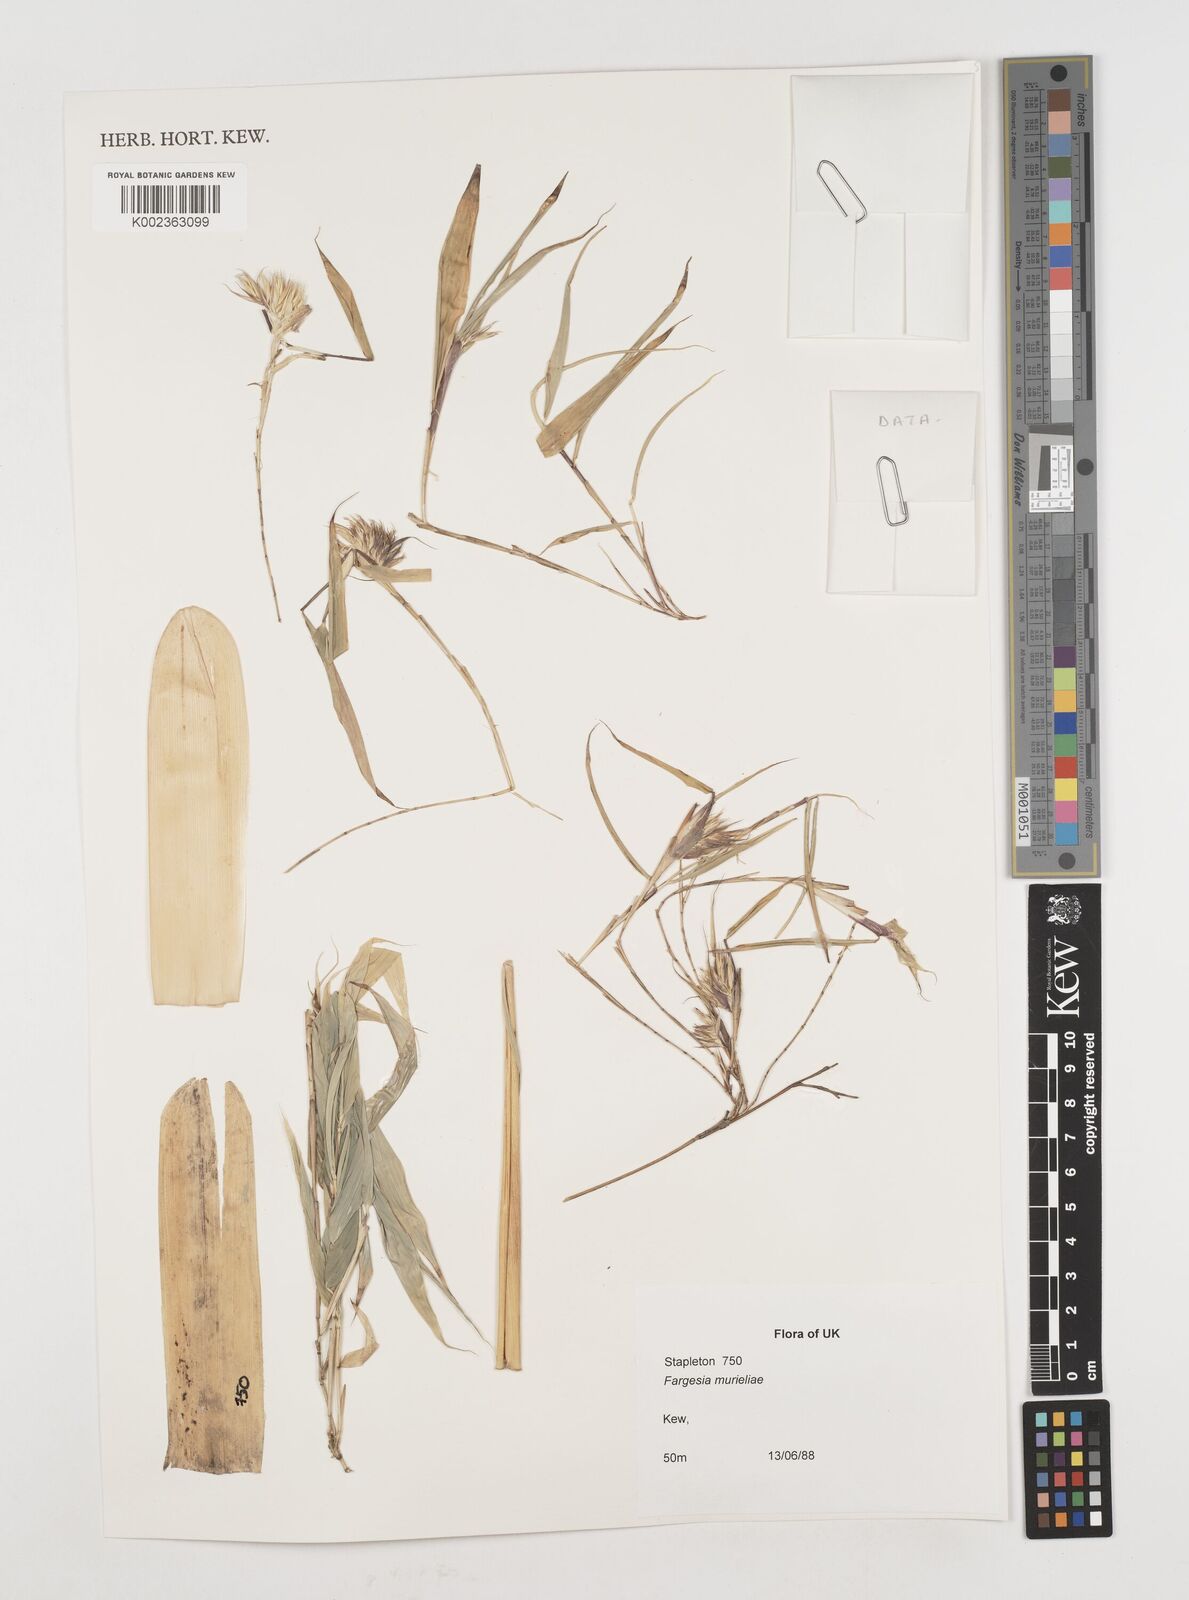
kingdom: Plantae
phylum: Tracheophyta
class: Liliopsida
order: Poales
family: Poaceae
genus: Fargesia
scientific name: Fargesia murielae
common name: Umbrella bamboo
